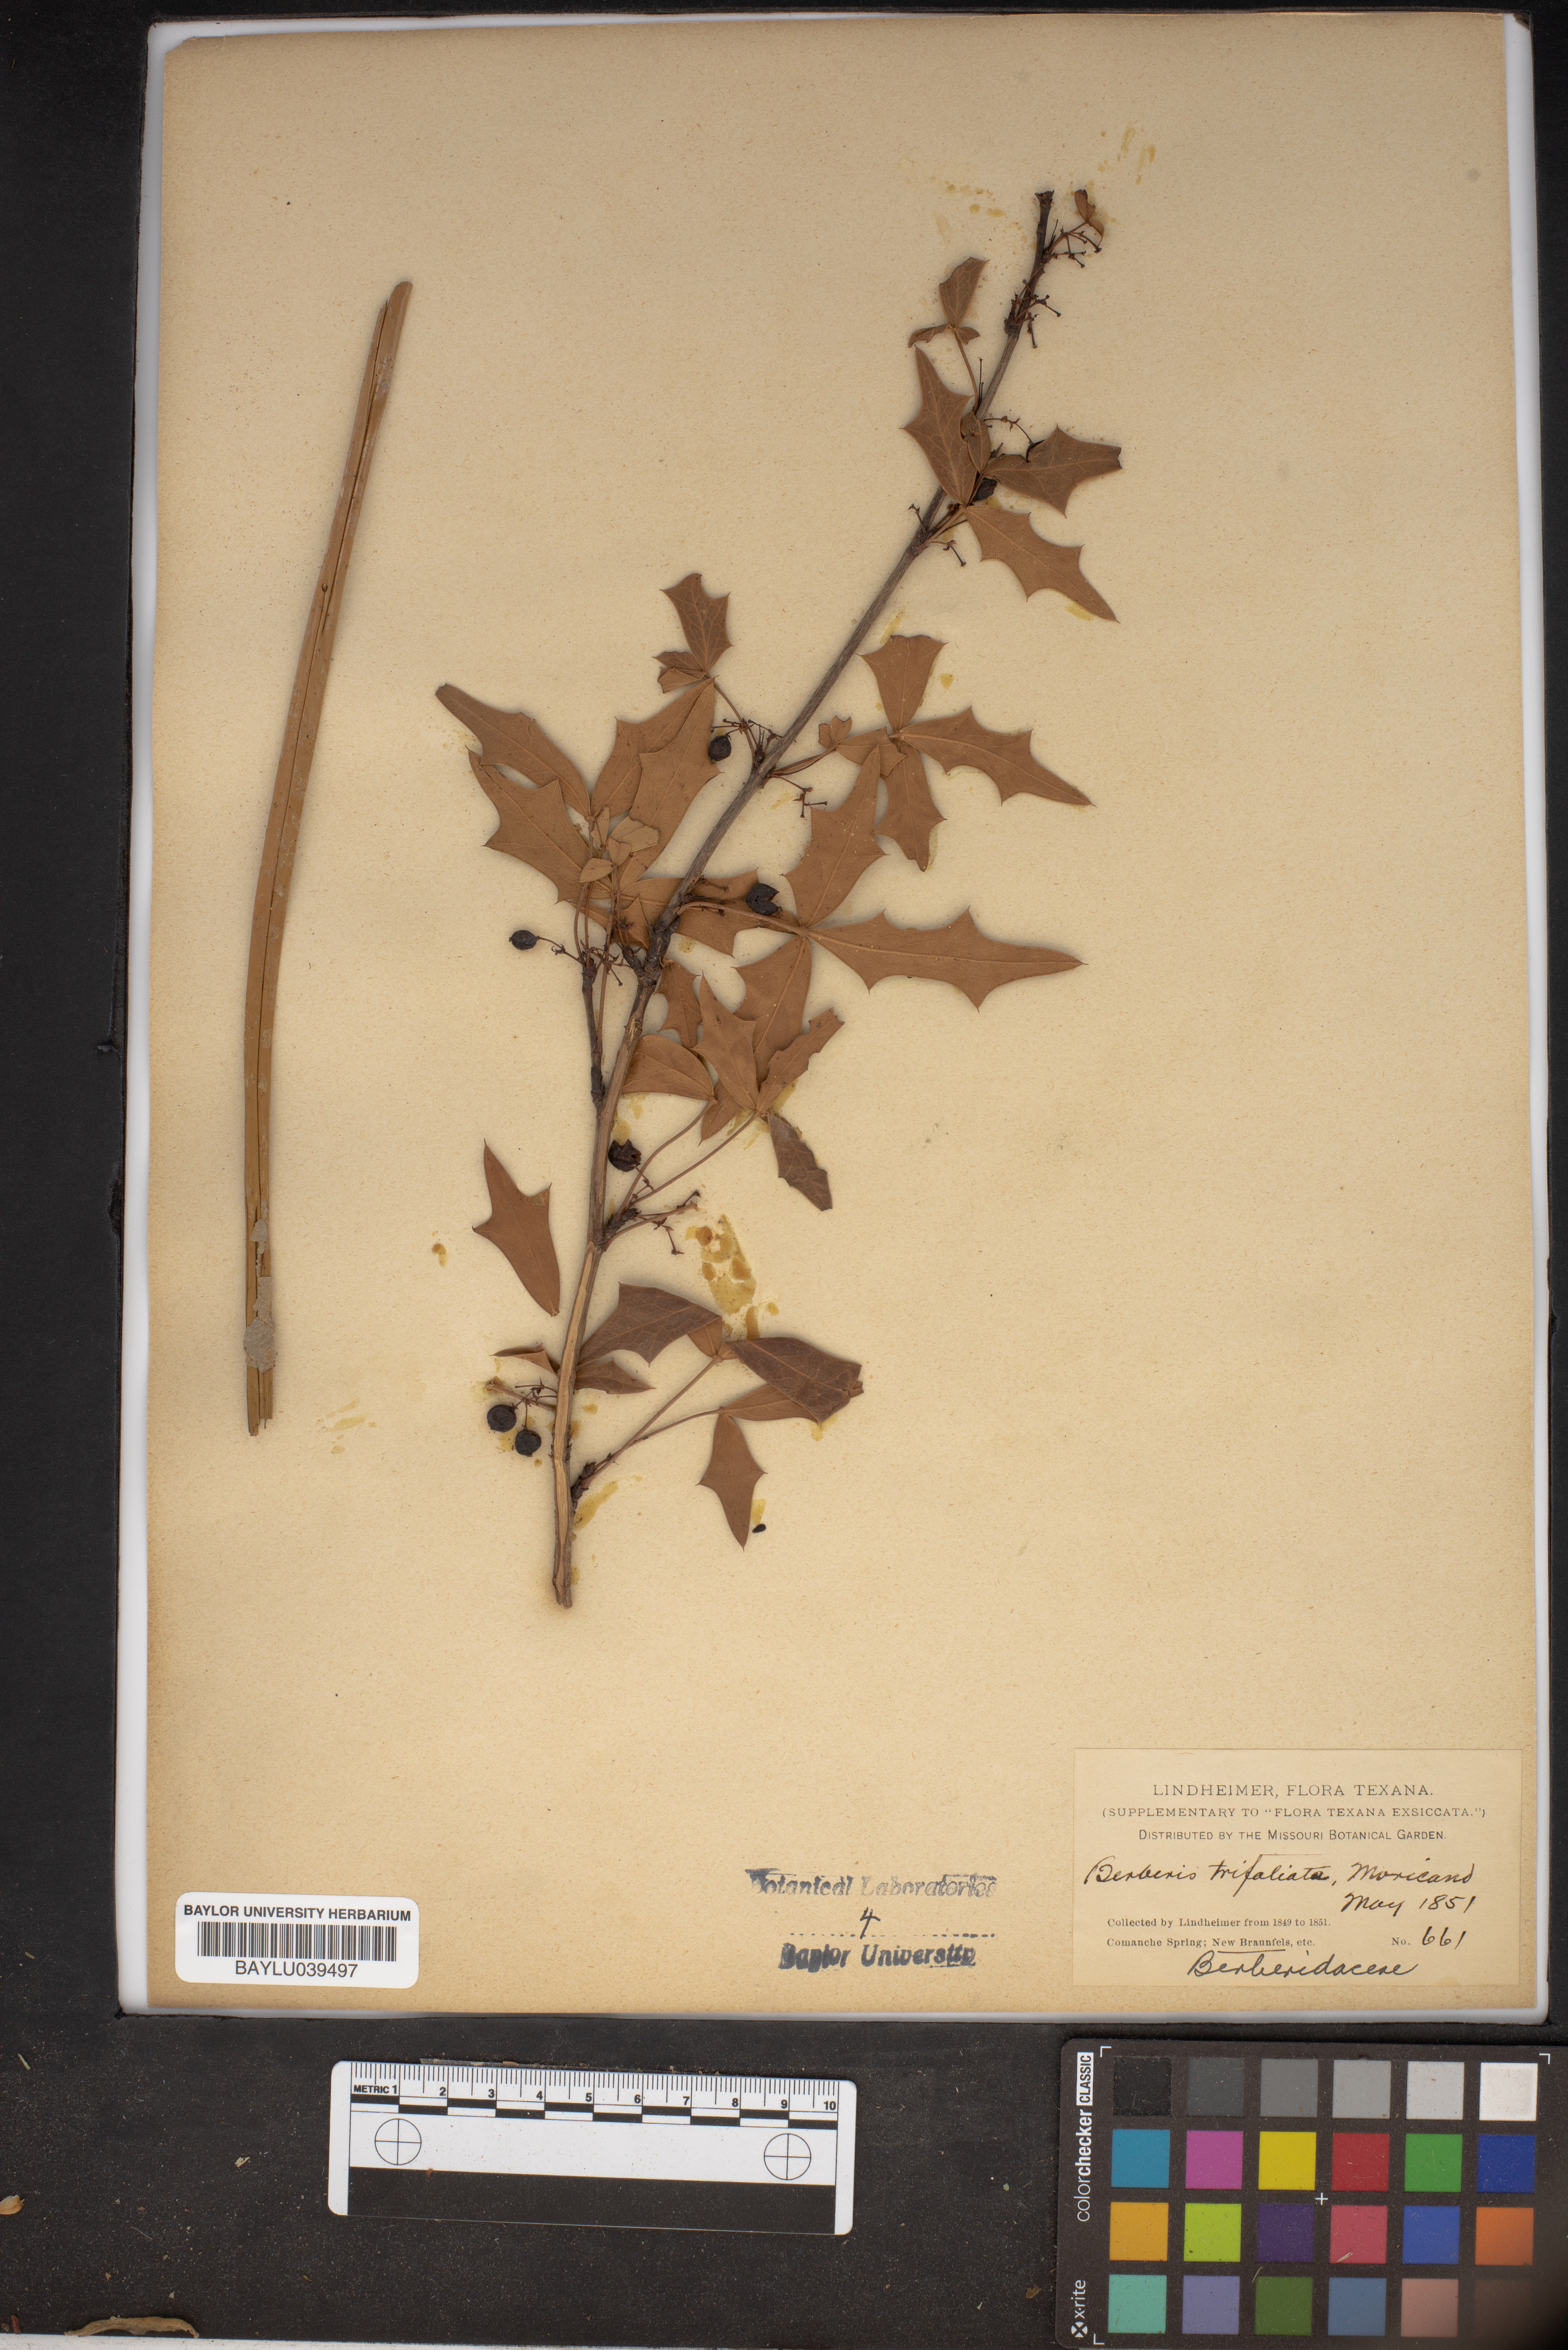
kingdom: Plantae
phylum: Tracheophyta
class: Magnoliopsida
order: Ranunculales
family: Berberidaceae
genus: Alloberberis
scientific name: Alloberberis fremontii
